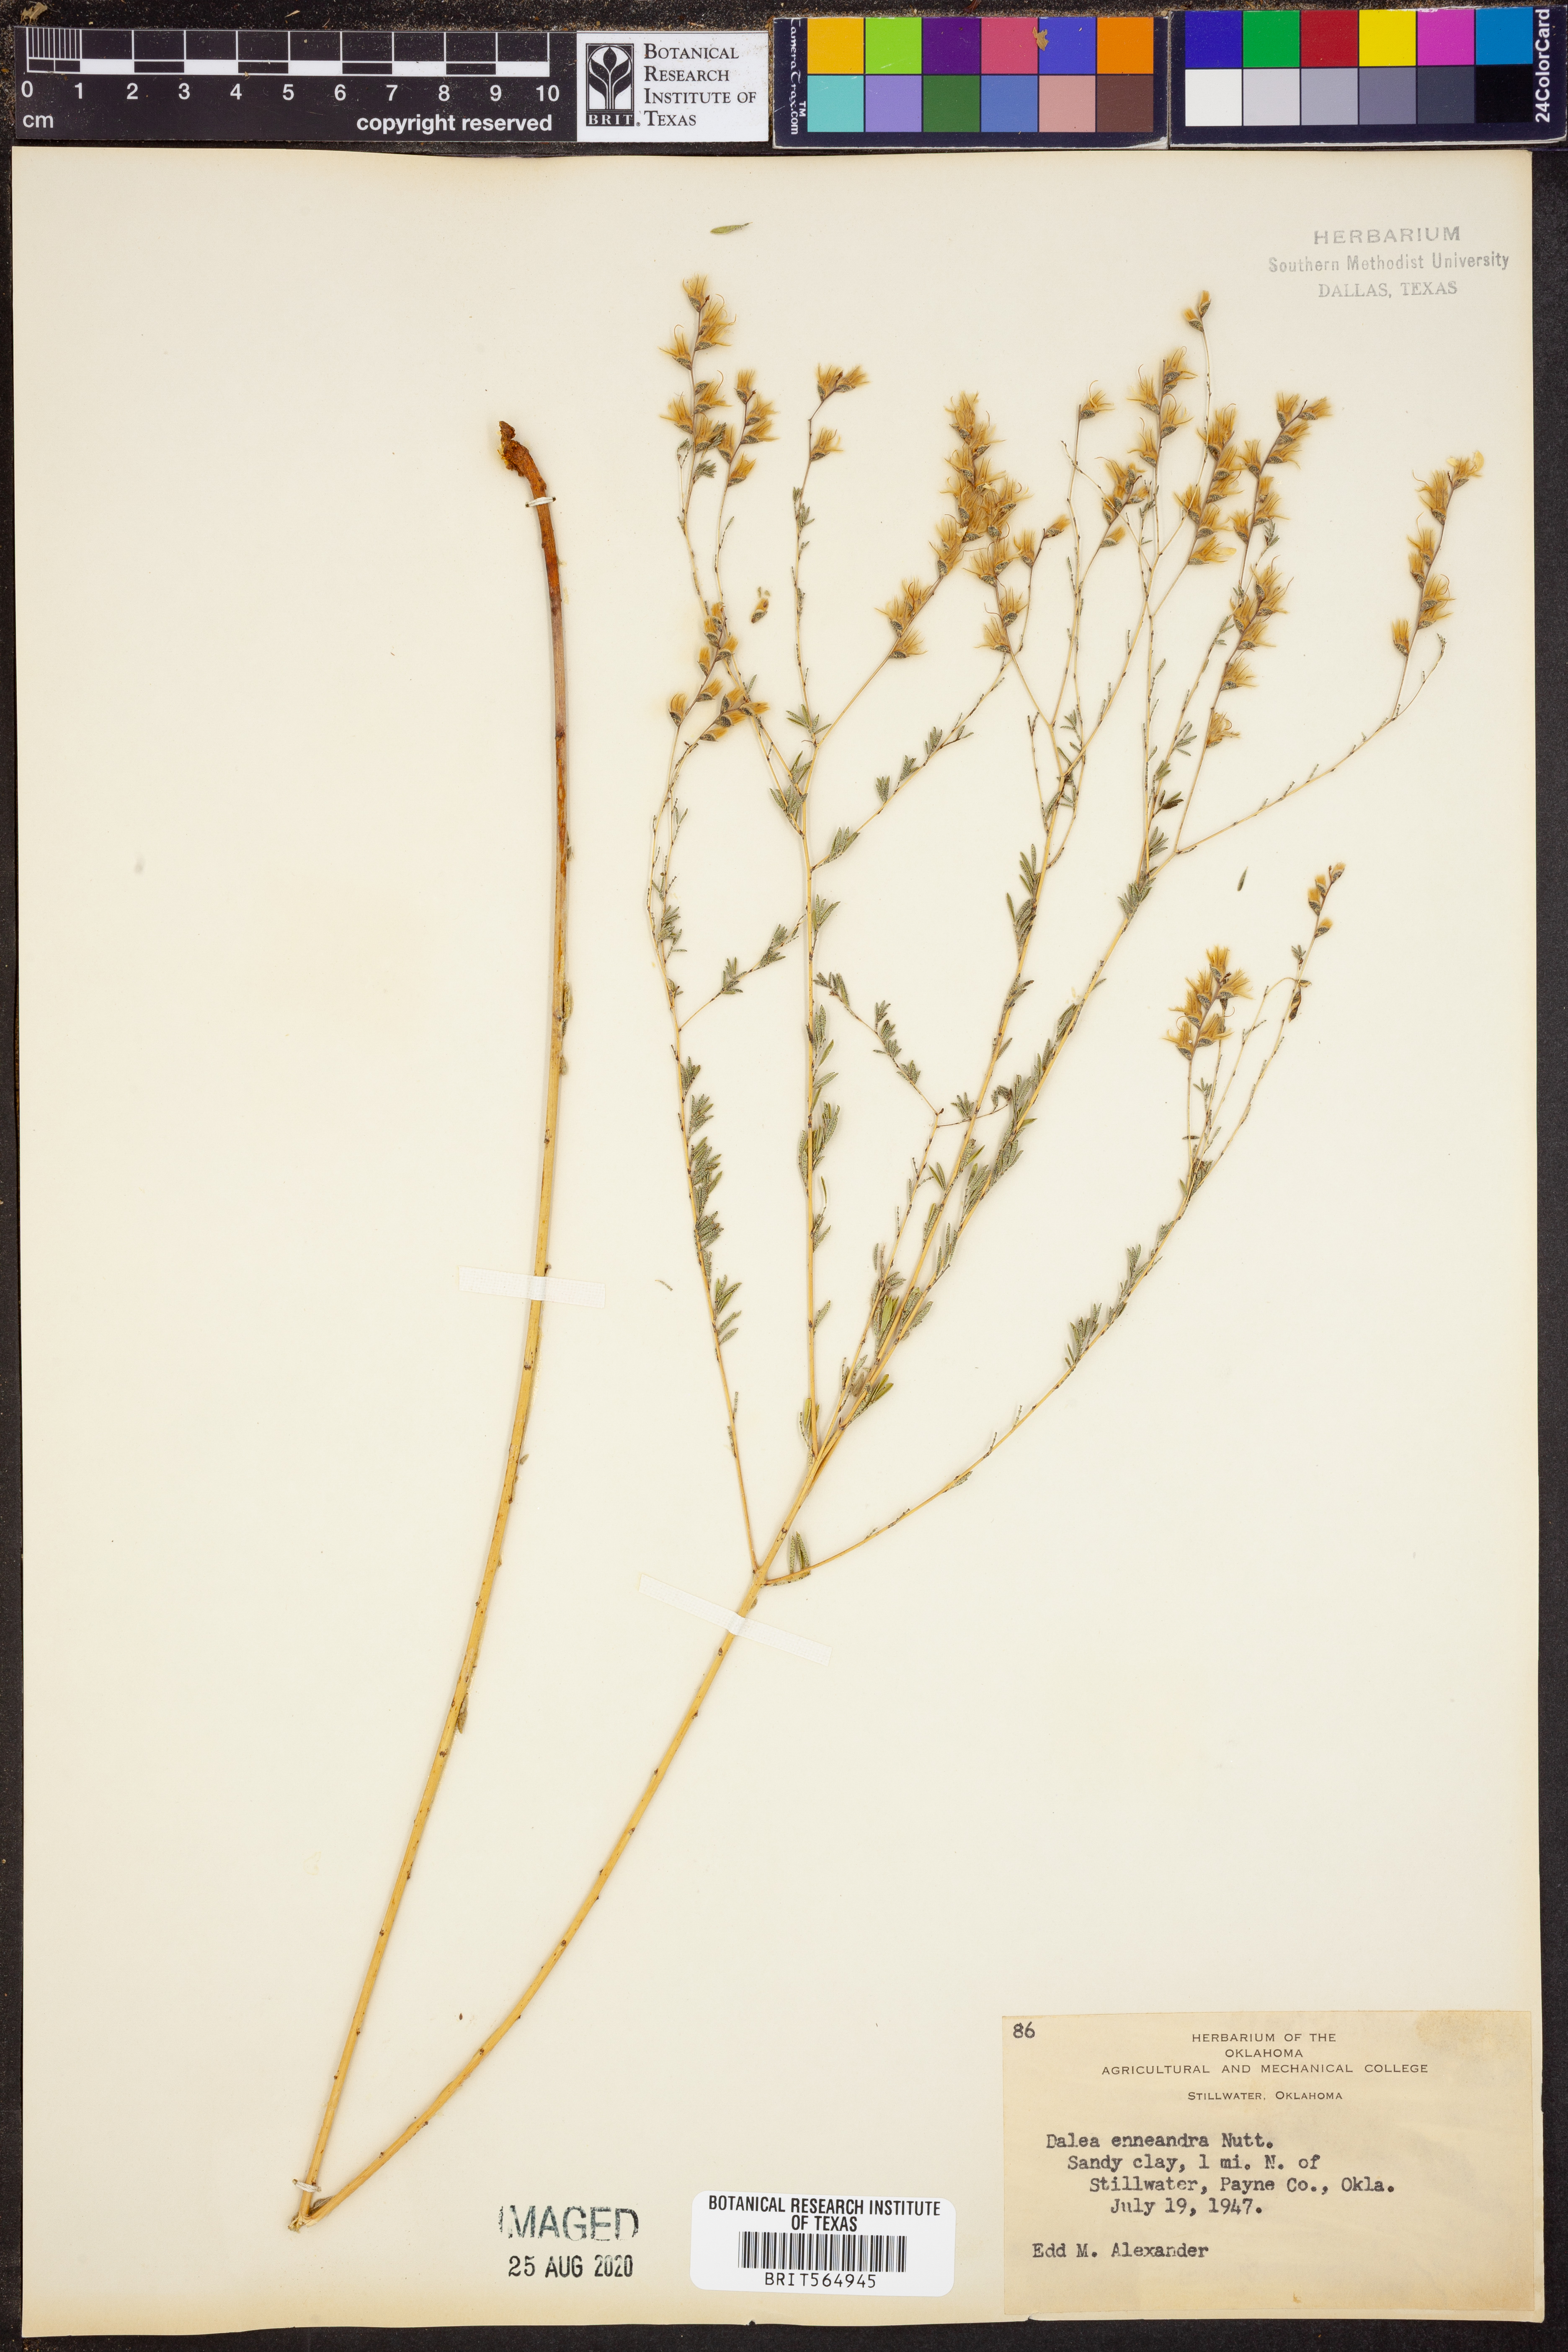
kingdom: Plantae
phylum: Tracheophyta
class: Magnoliopsida
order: Fabales
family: Fabaceae
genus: Dalea
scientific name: Dalea enneandra
